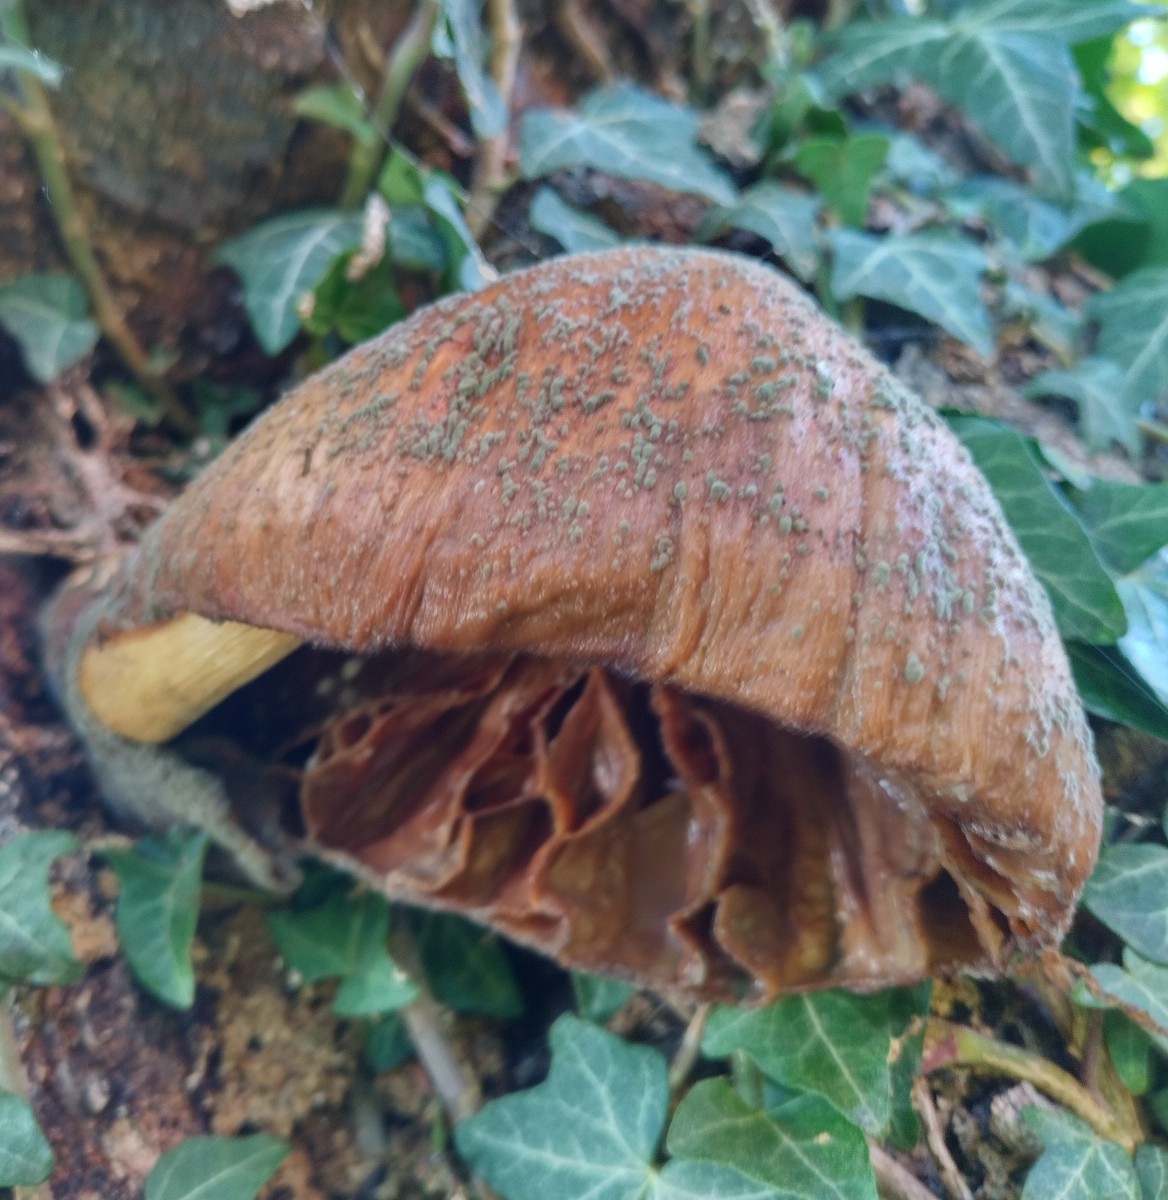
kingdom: Fungi
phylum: Basidiomycota
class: Agaricomycetes
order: Agaricales
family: Pluteaceae
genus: Volvariella
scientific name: Volvariella bombycina
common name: silkehåret posesvamp
